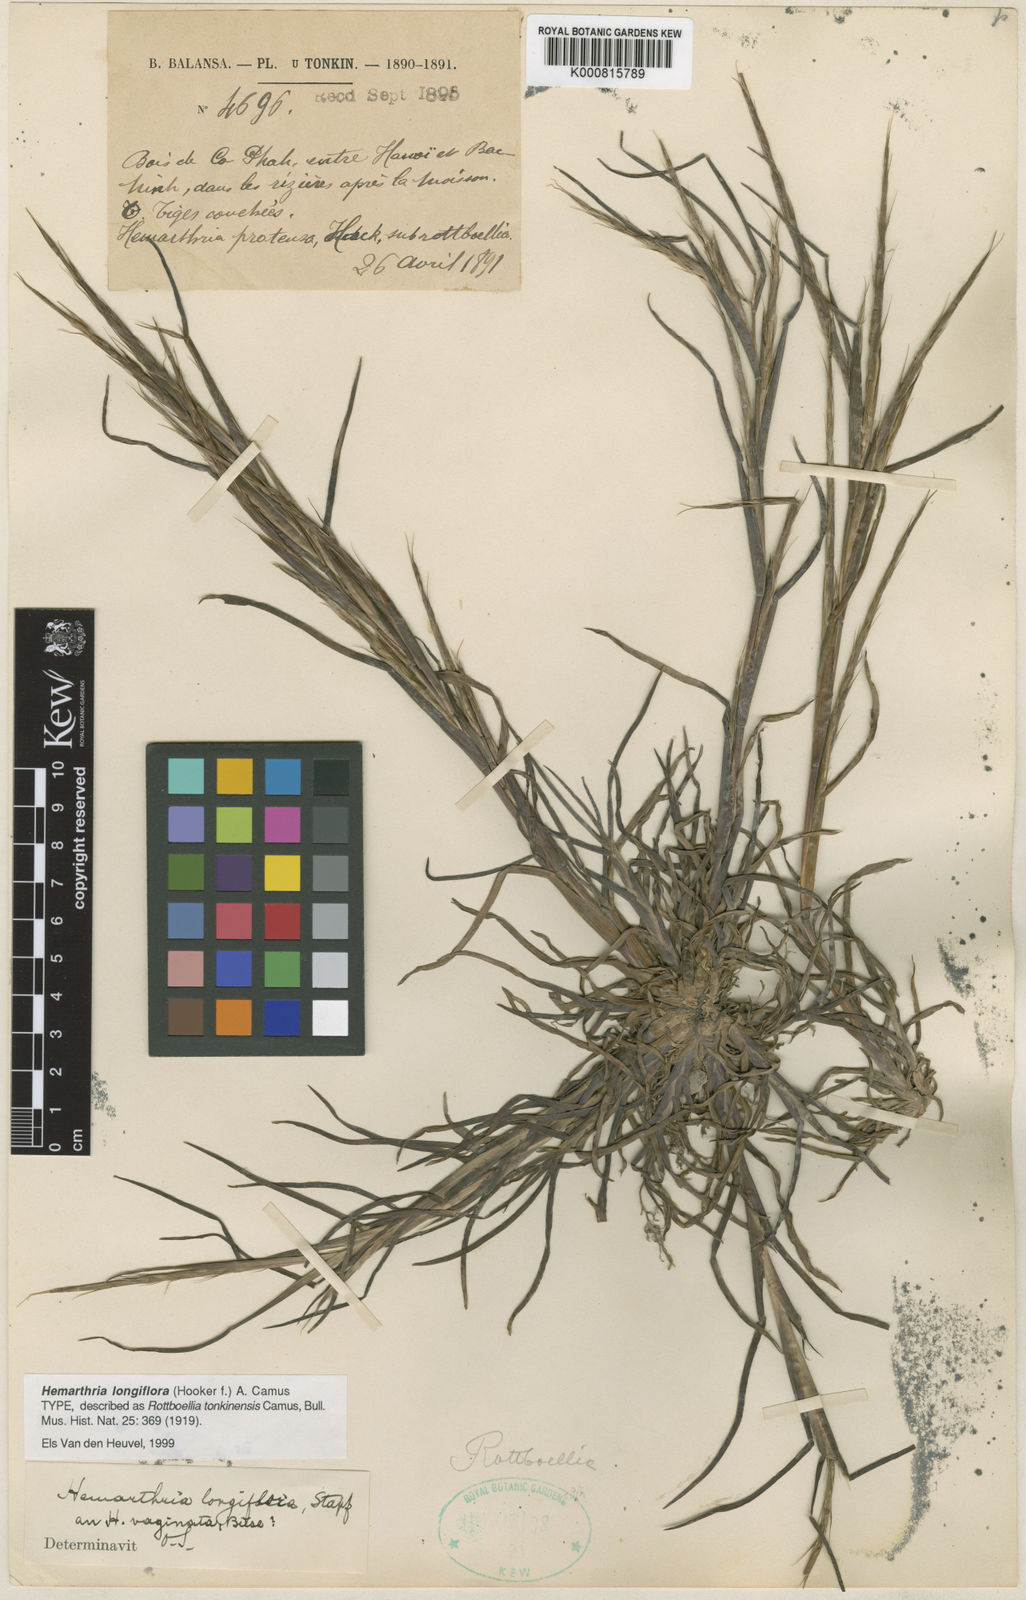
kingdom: Plantae
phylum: Tracheophyta
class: Liliopsida
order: Poales
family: Poaceae
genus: Hemarthria
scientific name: Hemarthria longiflora
